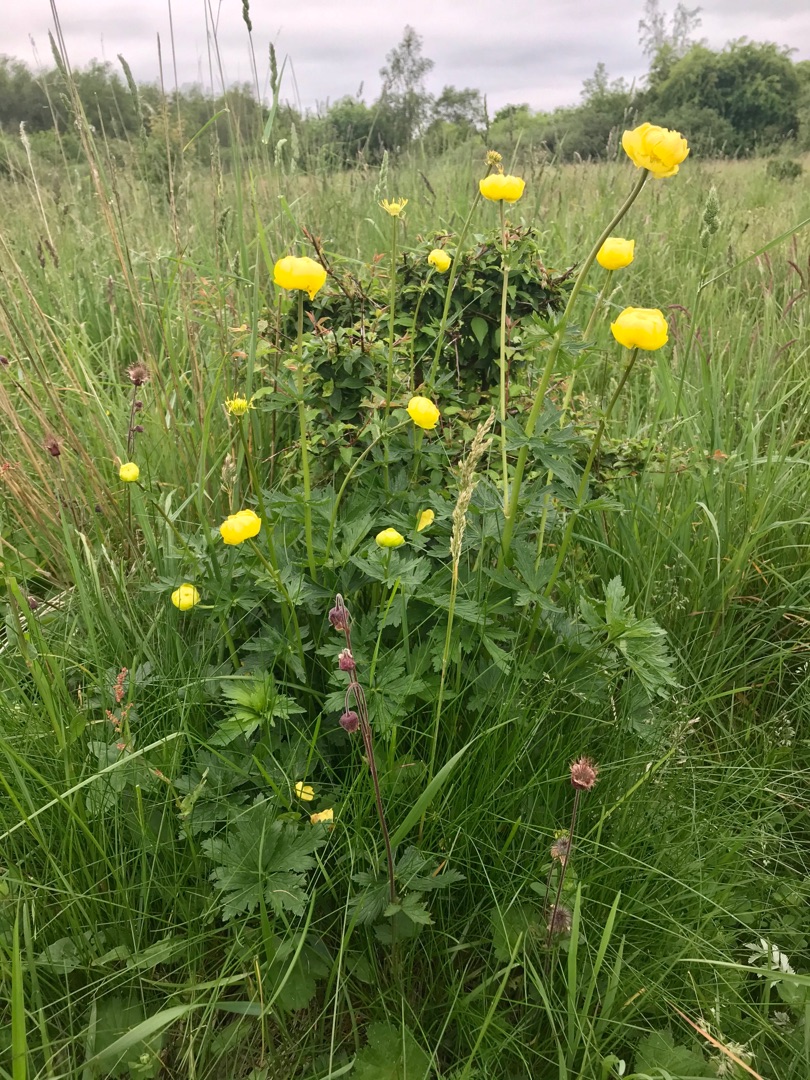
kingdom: Plantae
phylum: Tracheophyta
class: Magnoliopsida
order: Ranunculales
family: Ranunculaceae
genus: Trollius
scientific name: Trollius europaeus
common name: Engblomme
